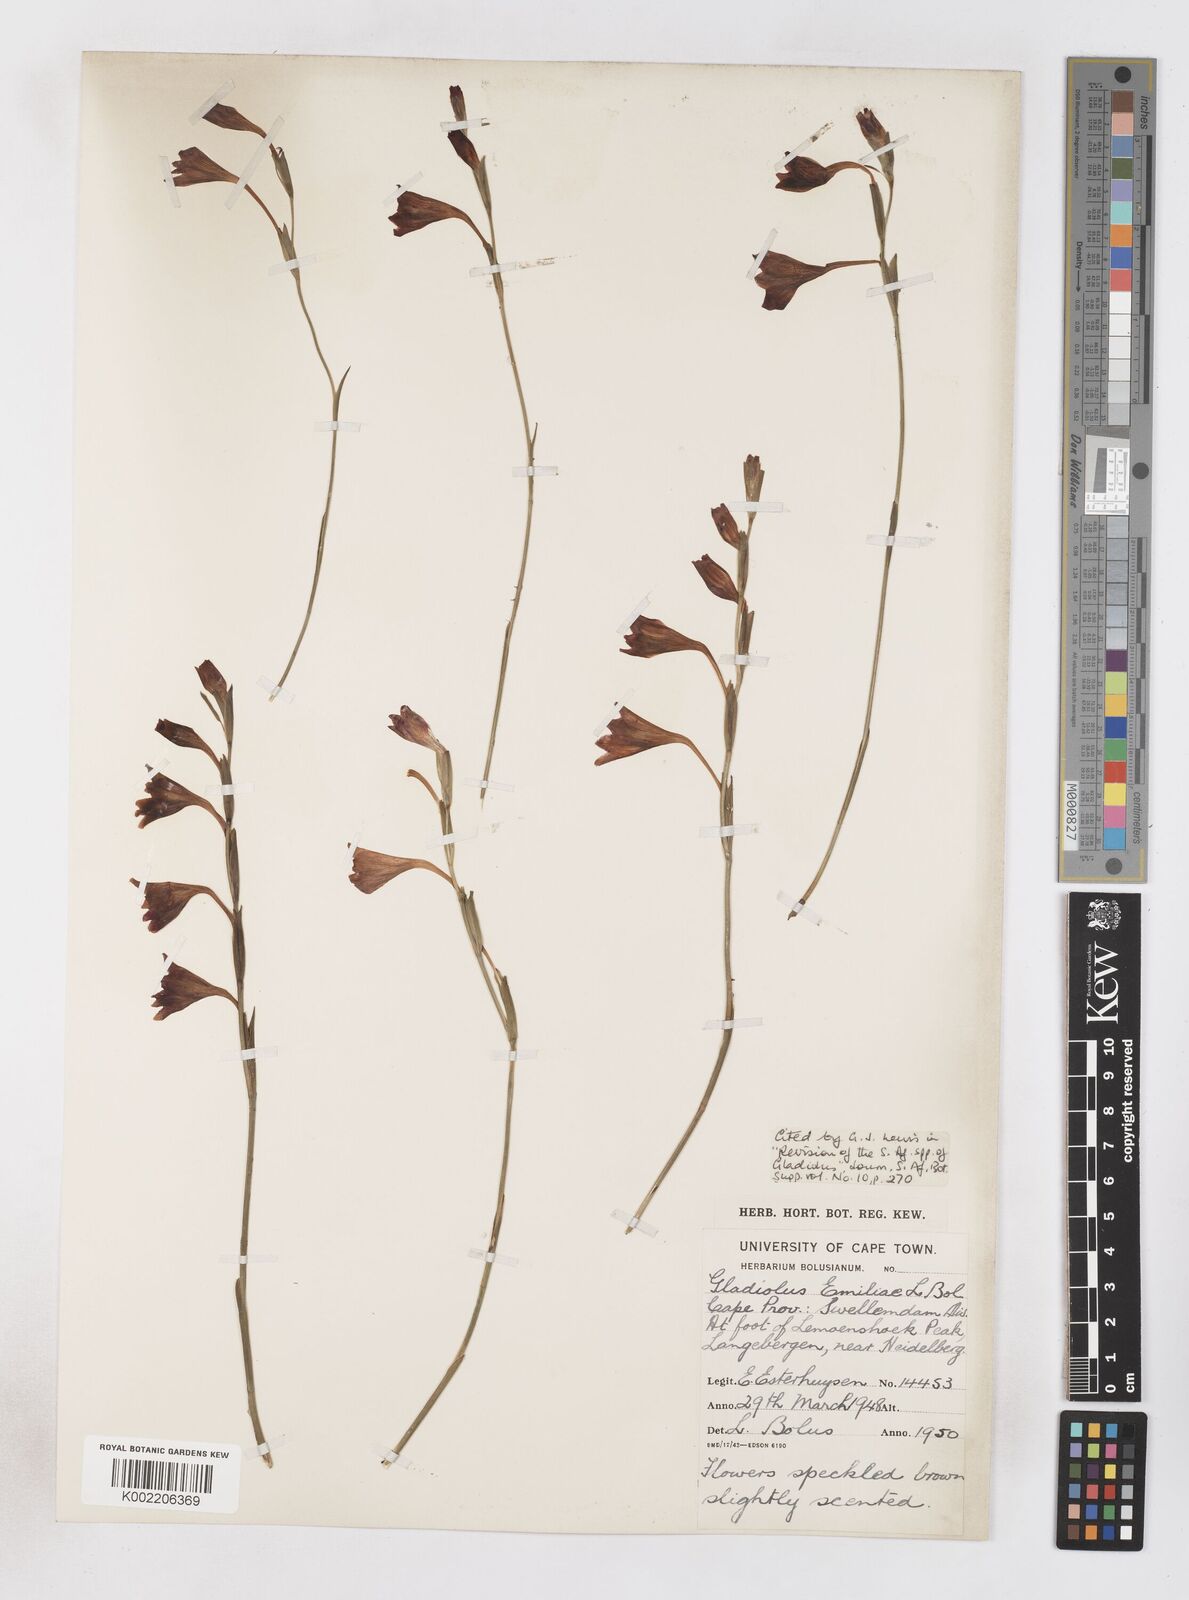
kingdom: Plantae
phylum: Tracheophyta
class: Liliopsida
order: Asparagales
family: Iridaceae
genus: Gladiolus
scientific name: Gladiolus emiliae
